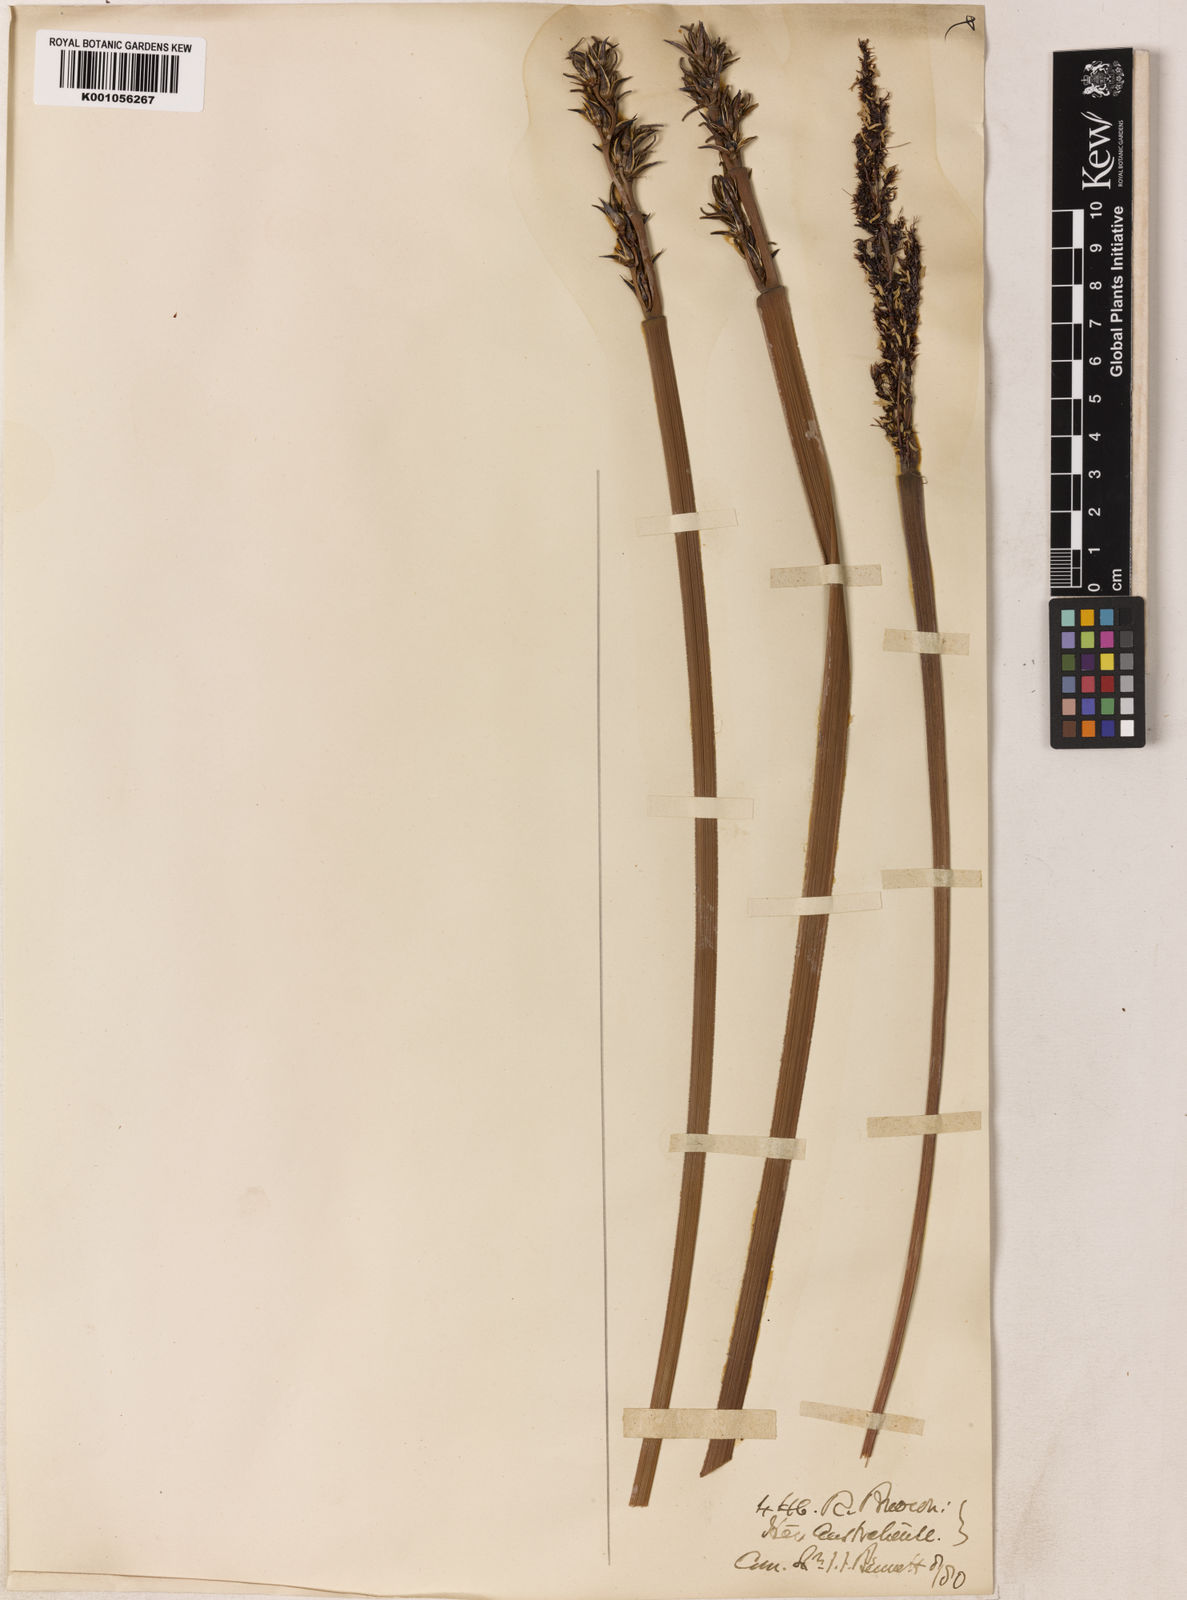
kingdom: Plantae
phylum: Tracheophyta
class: Liliopsida
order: Poales
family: Restionaceae
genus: Anarthria
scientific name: Anarthria scabra
